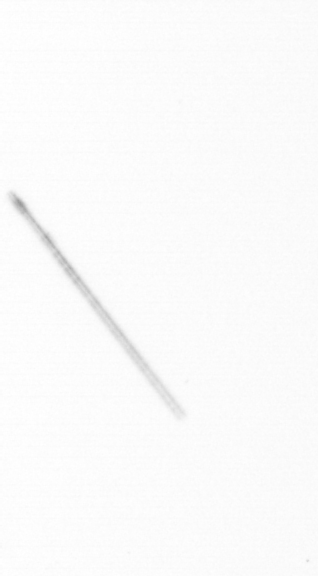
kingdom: Chromista
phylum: Ochrophyta
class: Bacillariophyceae
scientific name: Bacillariophyceae
